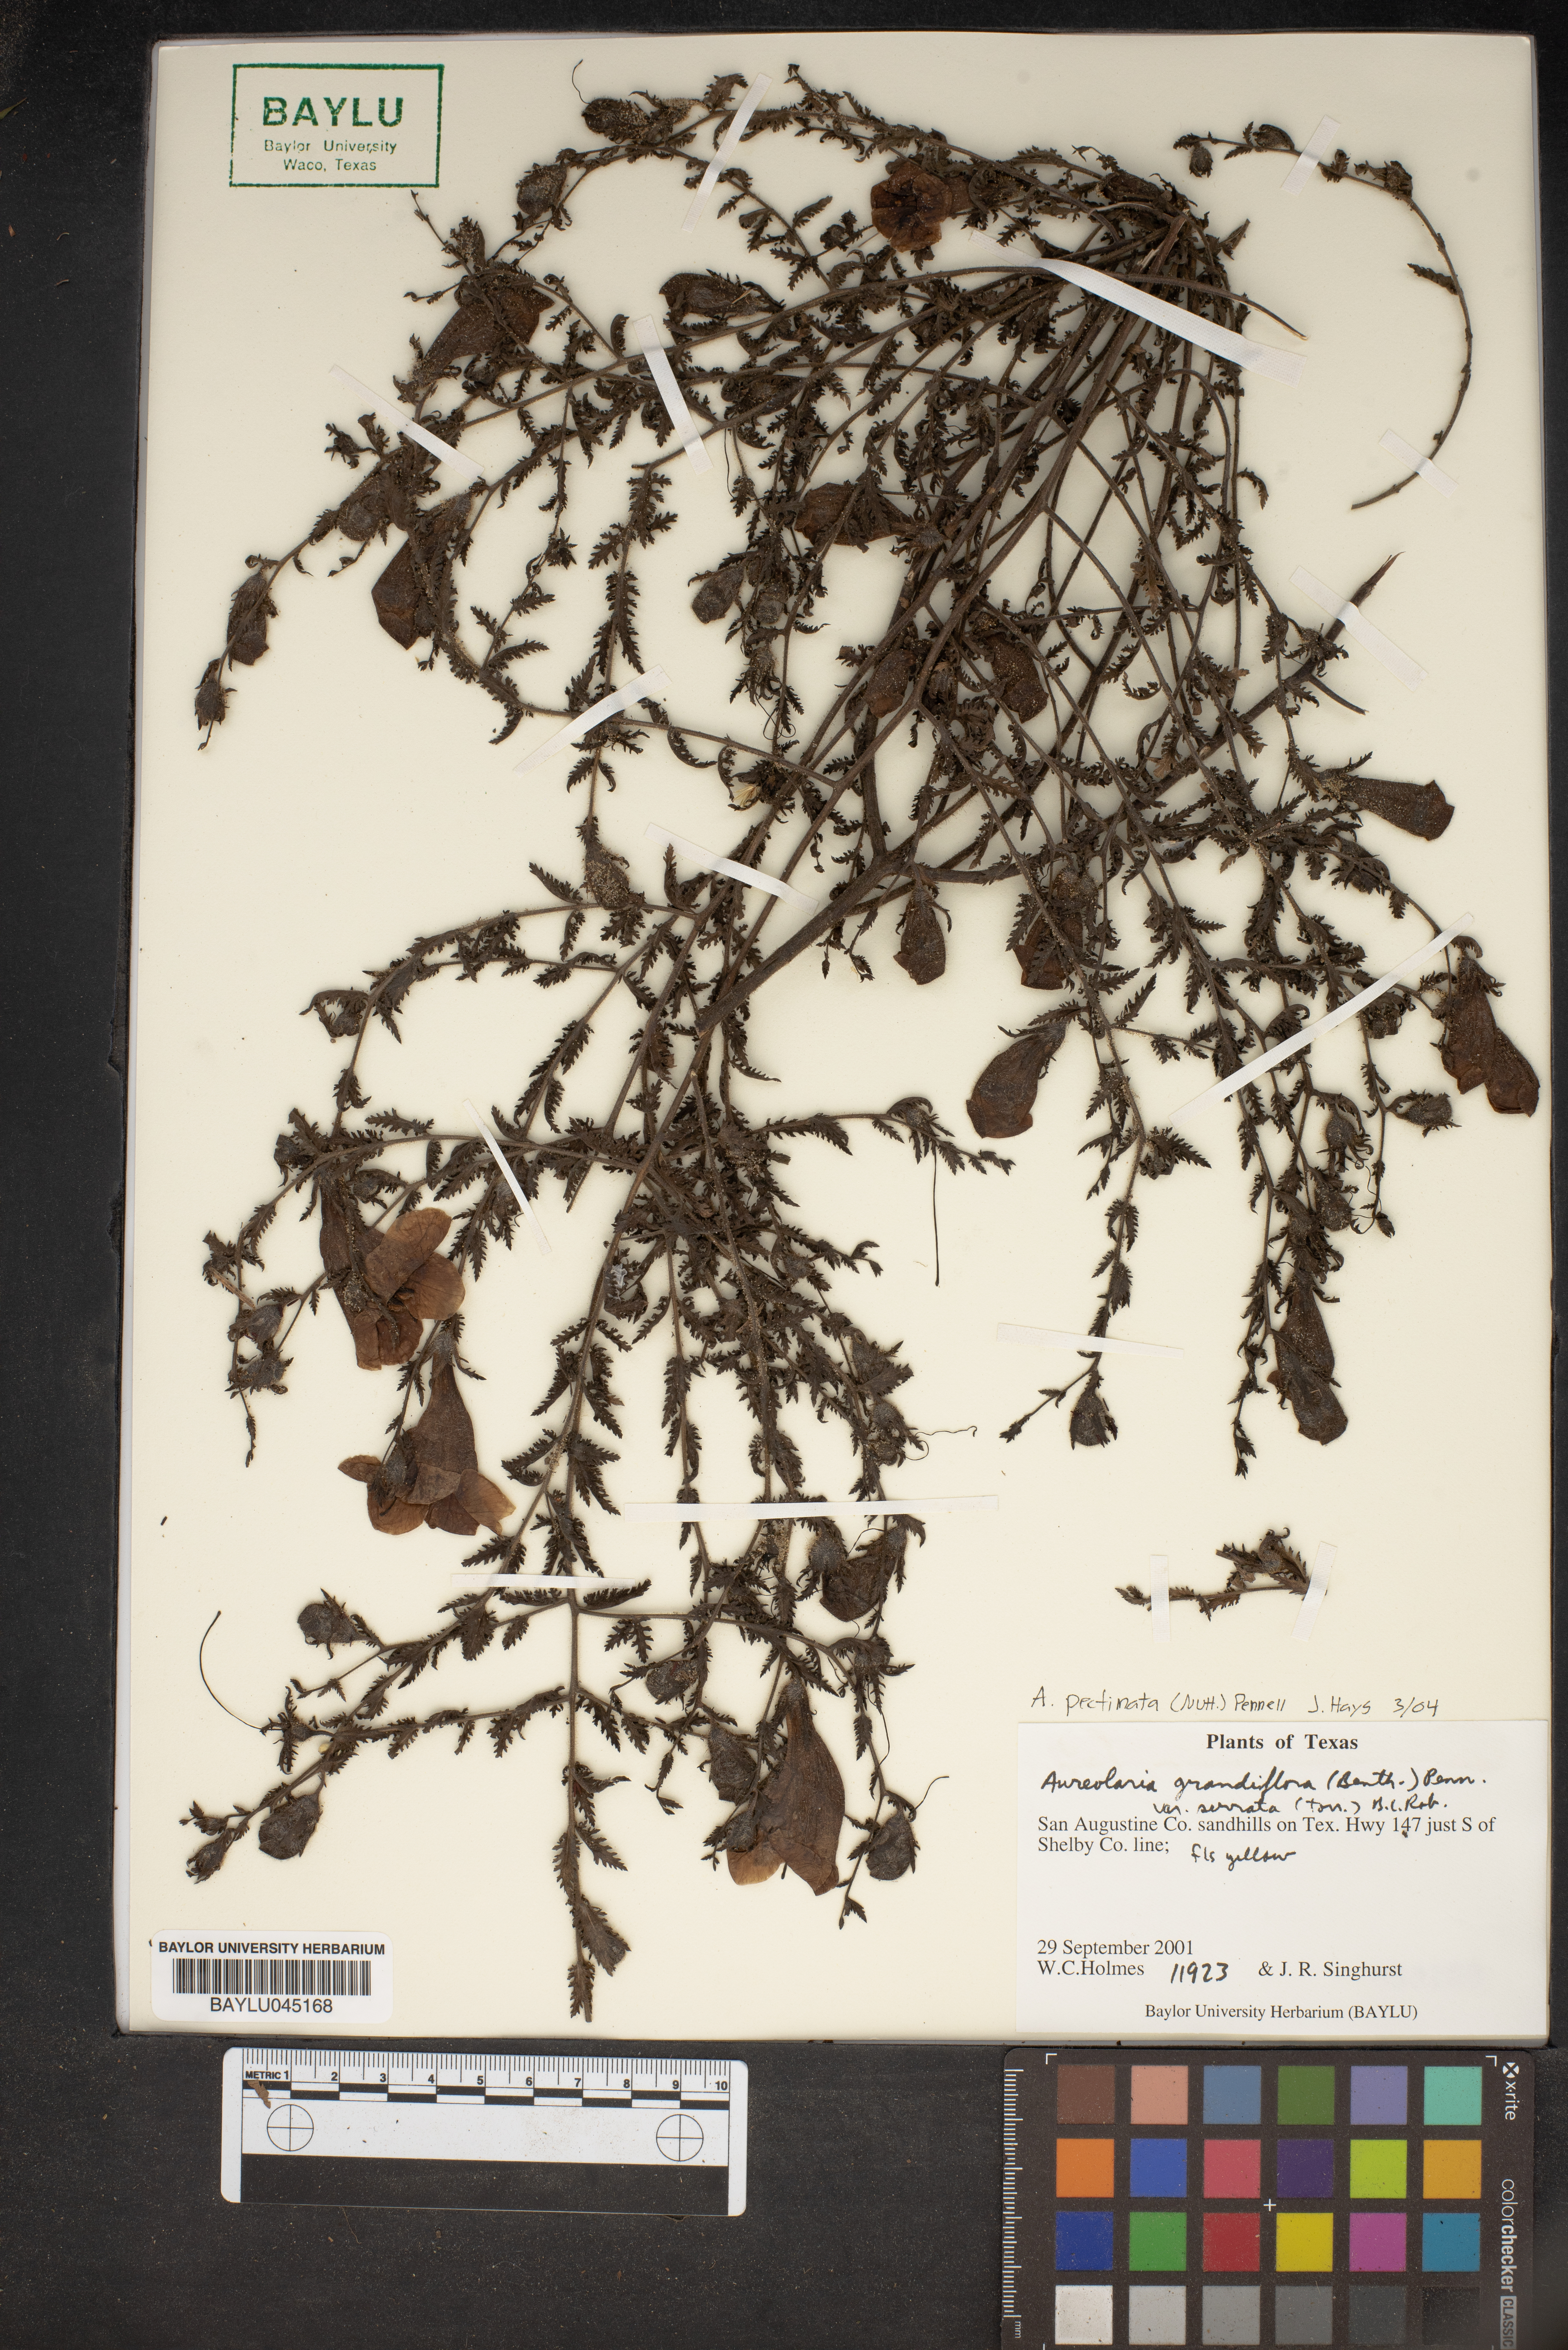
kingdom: Plantae
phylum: Tracheophyta
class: Magnoliopsida
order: Lamiales
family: Orobanchaceae
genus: Aureolaria
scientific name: Aureolaria grandiflora
